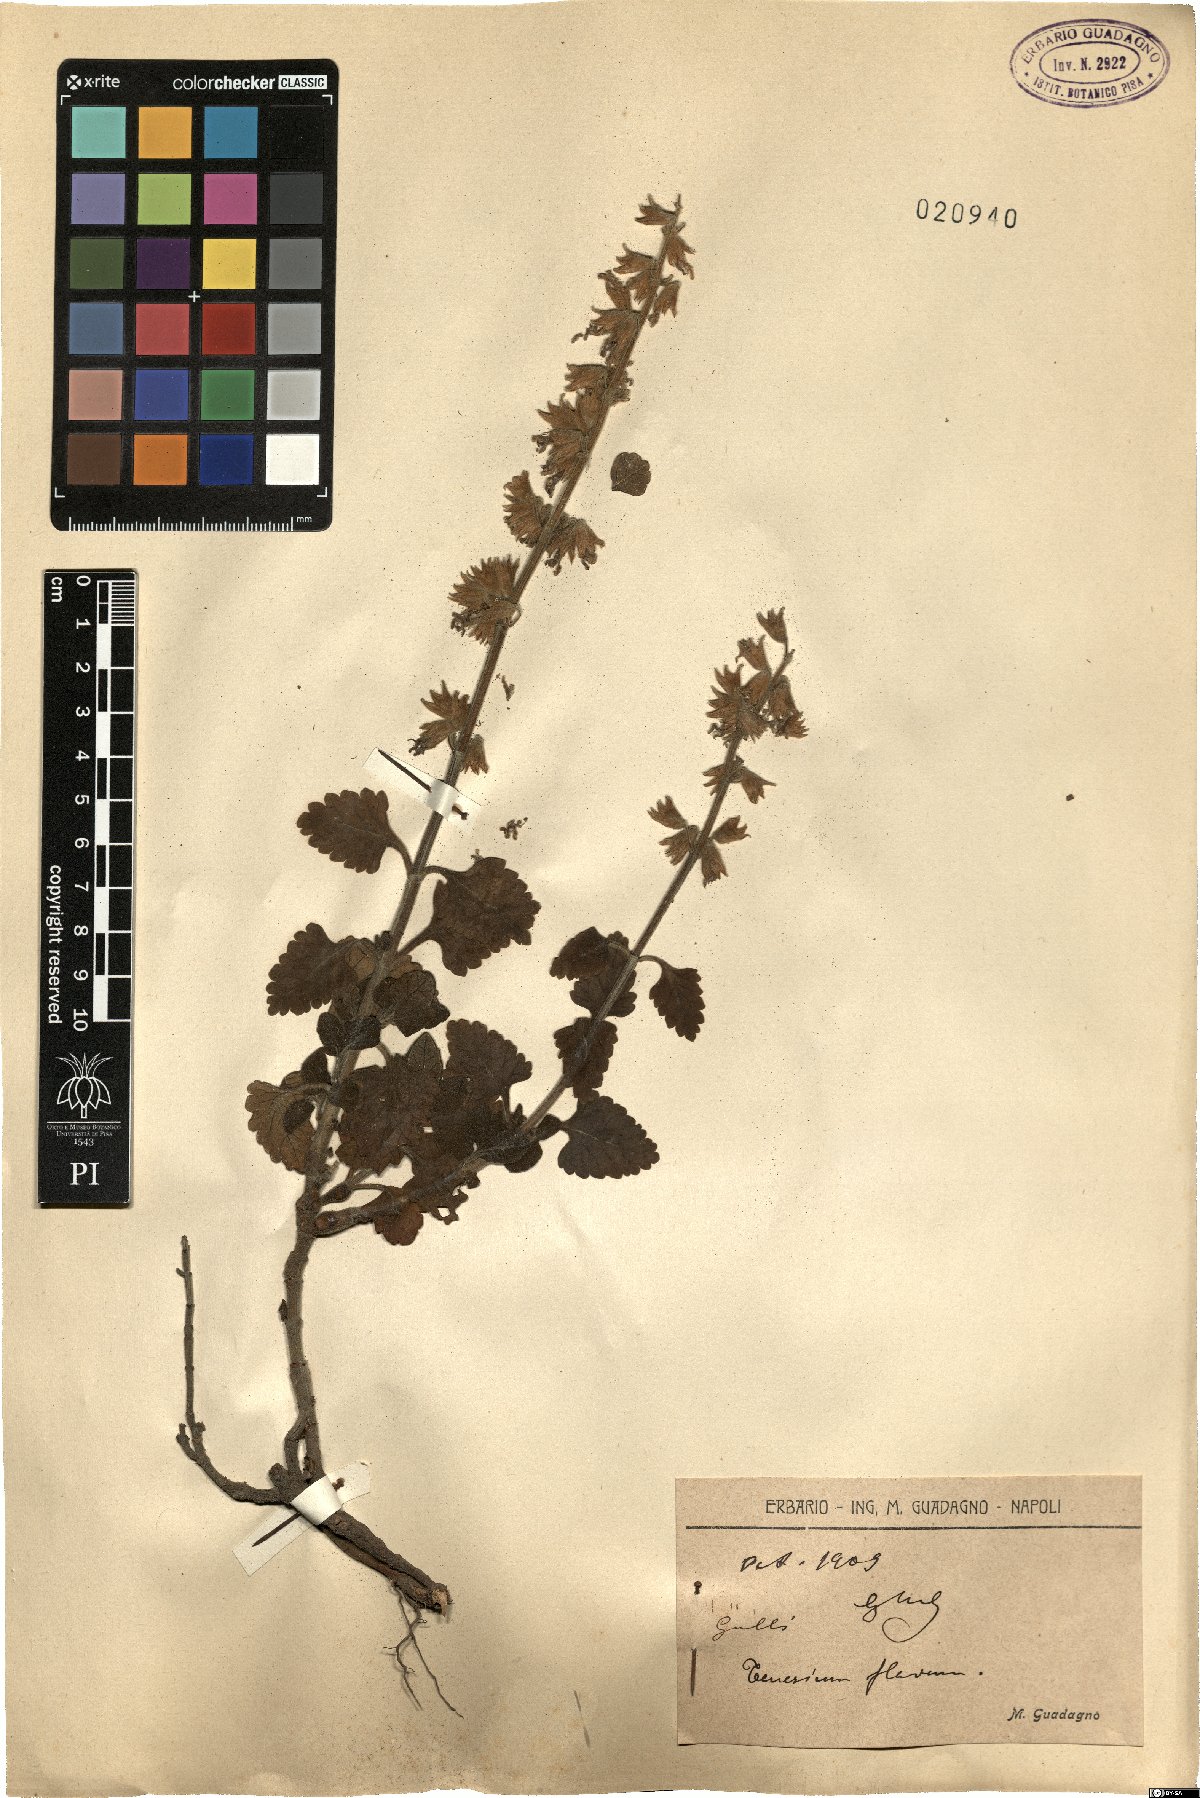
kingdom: Plantae
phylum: Tracheophyta
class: Magnoliopsida
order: Lamiales
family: Lamiaceae
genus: Teucrium
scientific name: Teucrium flavum
